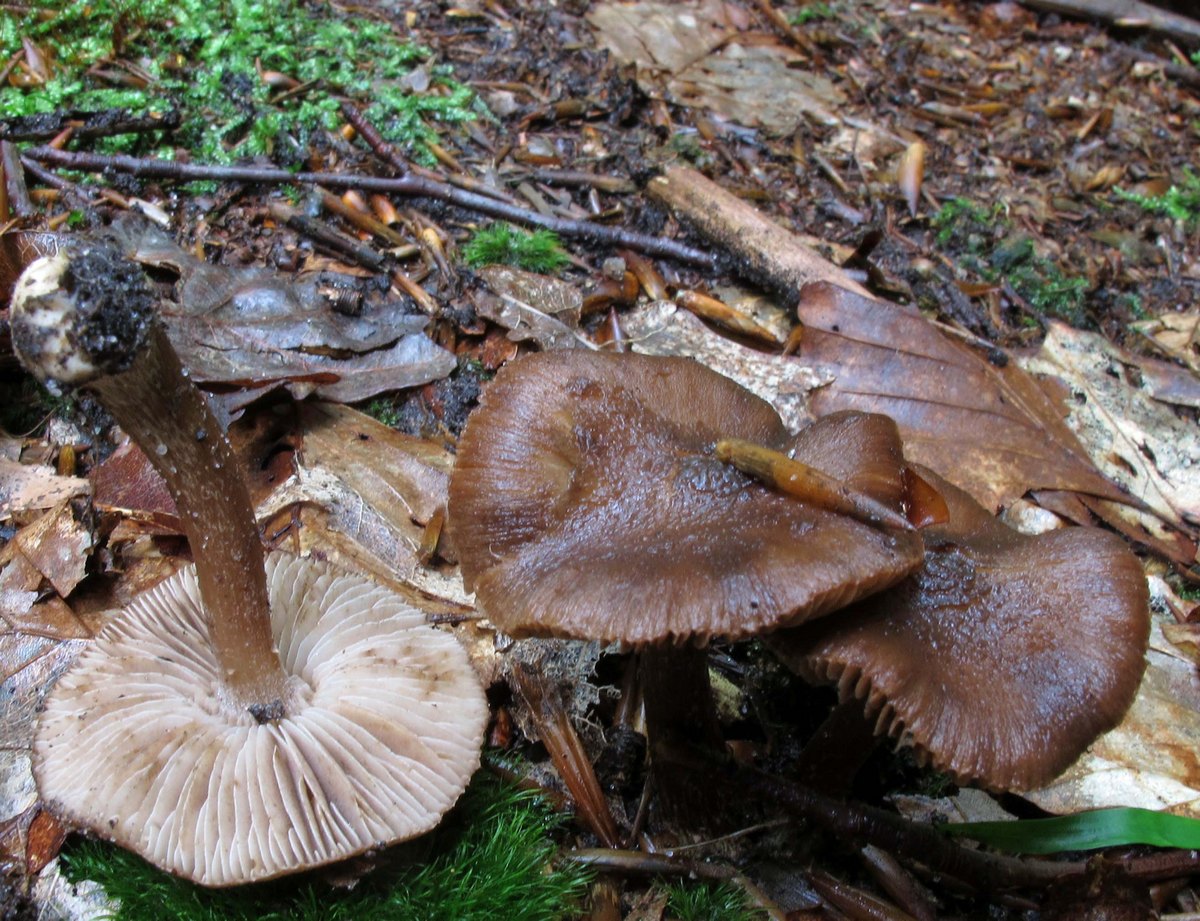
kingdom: Fungi
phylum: Basidiomycota
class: Agaricomycetes
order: Agaricales
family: Inocybaceae
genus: Inocybe
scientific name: Inocybe napipes
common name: roeknoldet trævlhat
